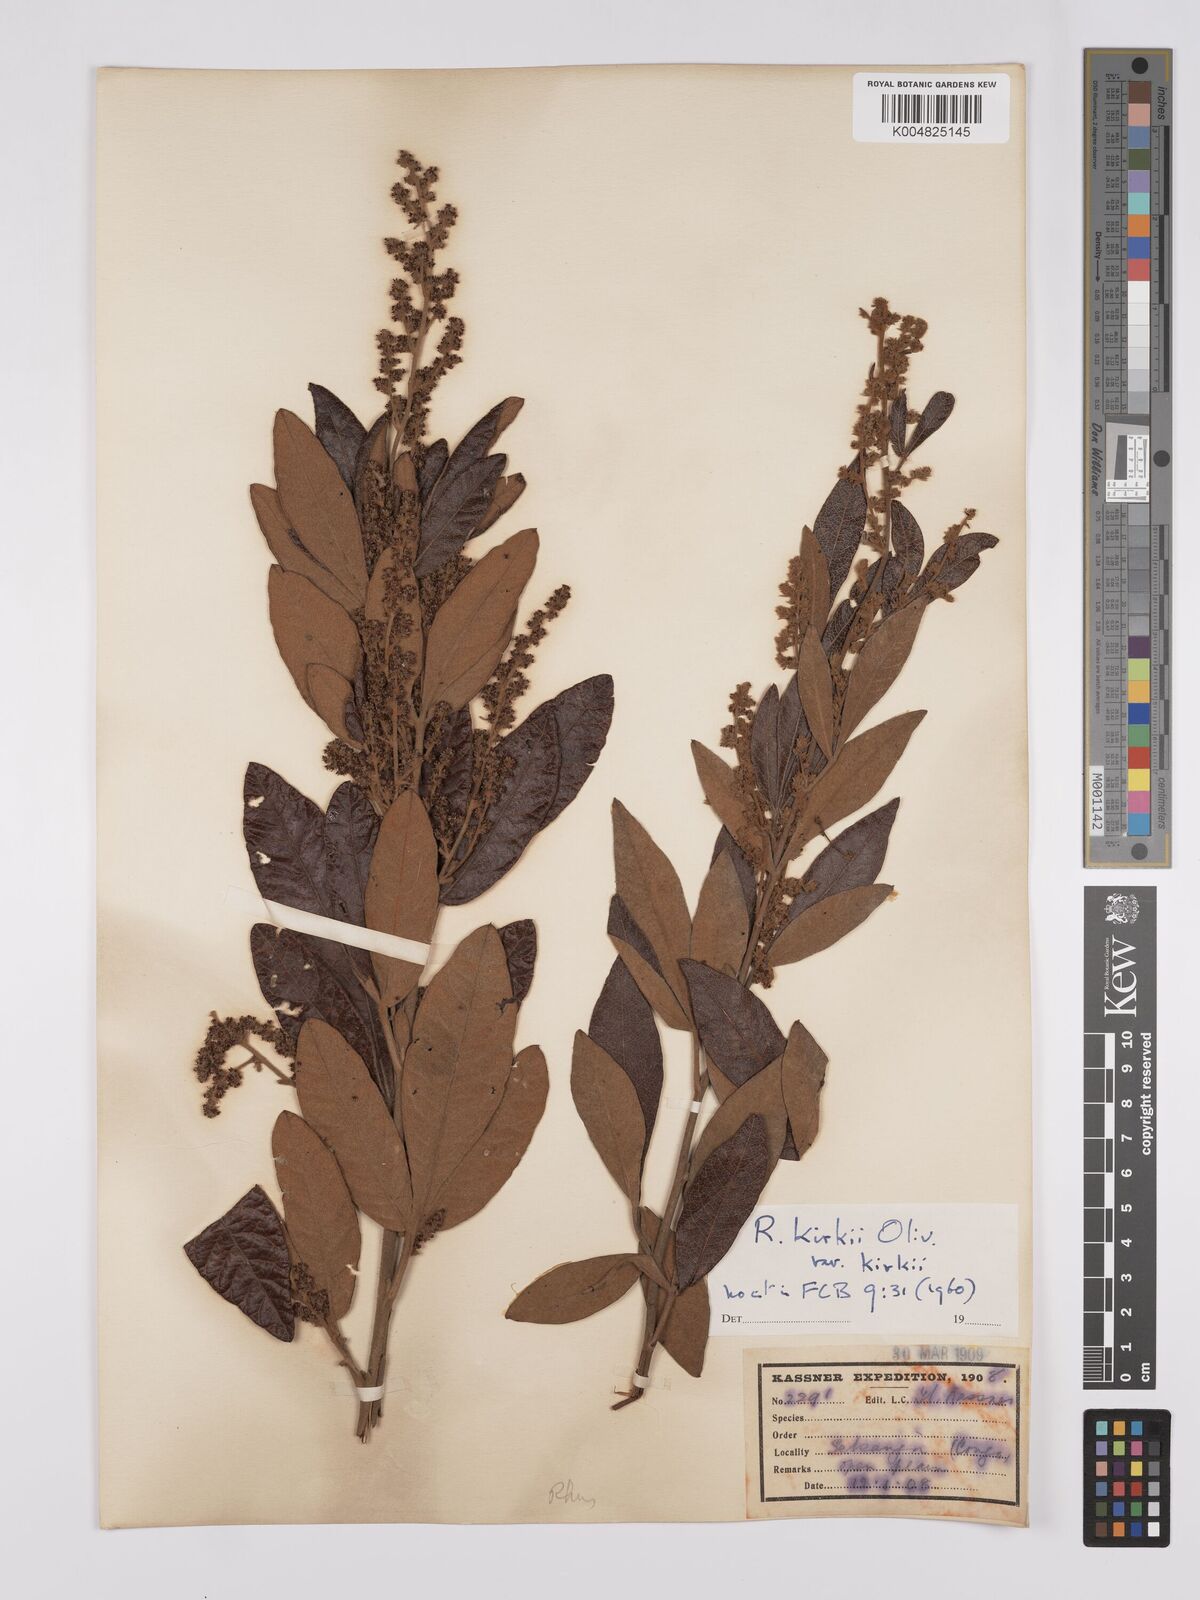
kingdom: Plantae
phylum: Tracheophyta
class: Magnoliopsida
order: Sapindales
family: Anacardiaceae
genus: Searsia
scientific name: Searsia kirkii
